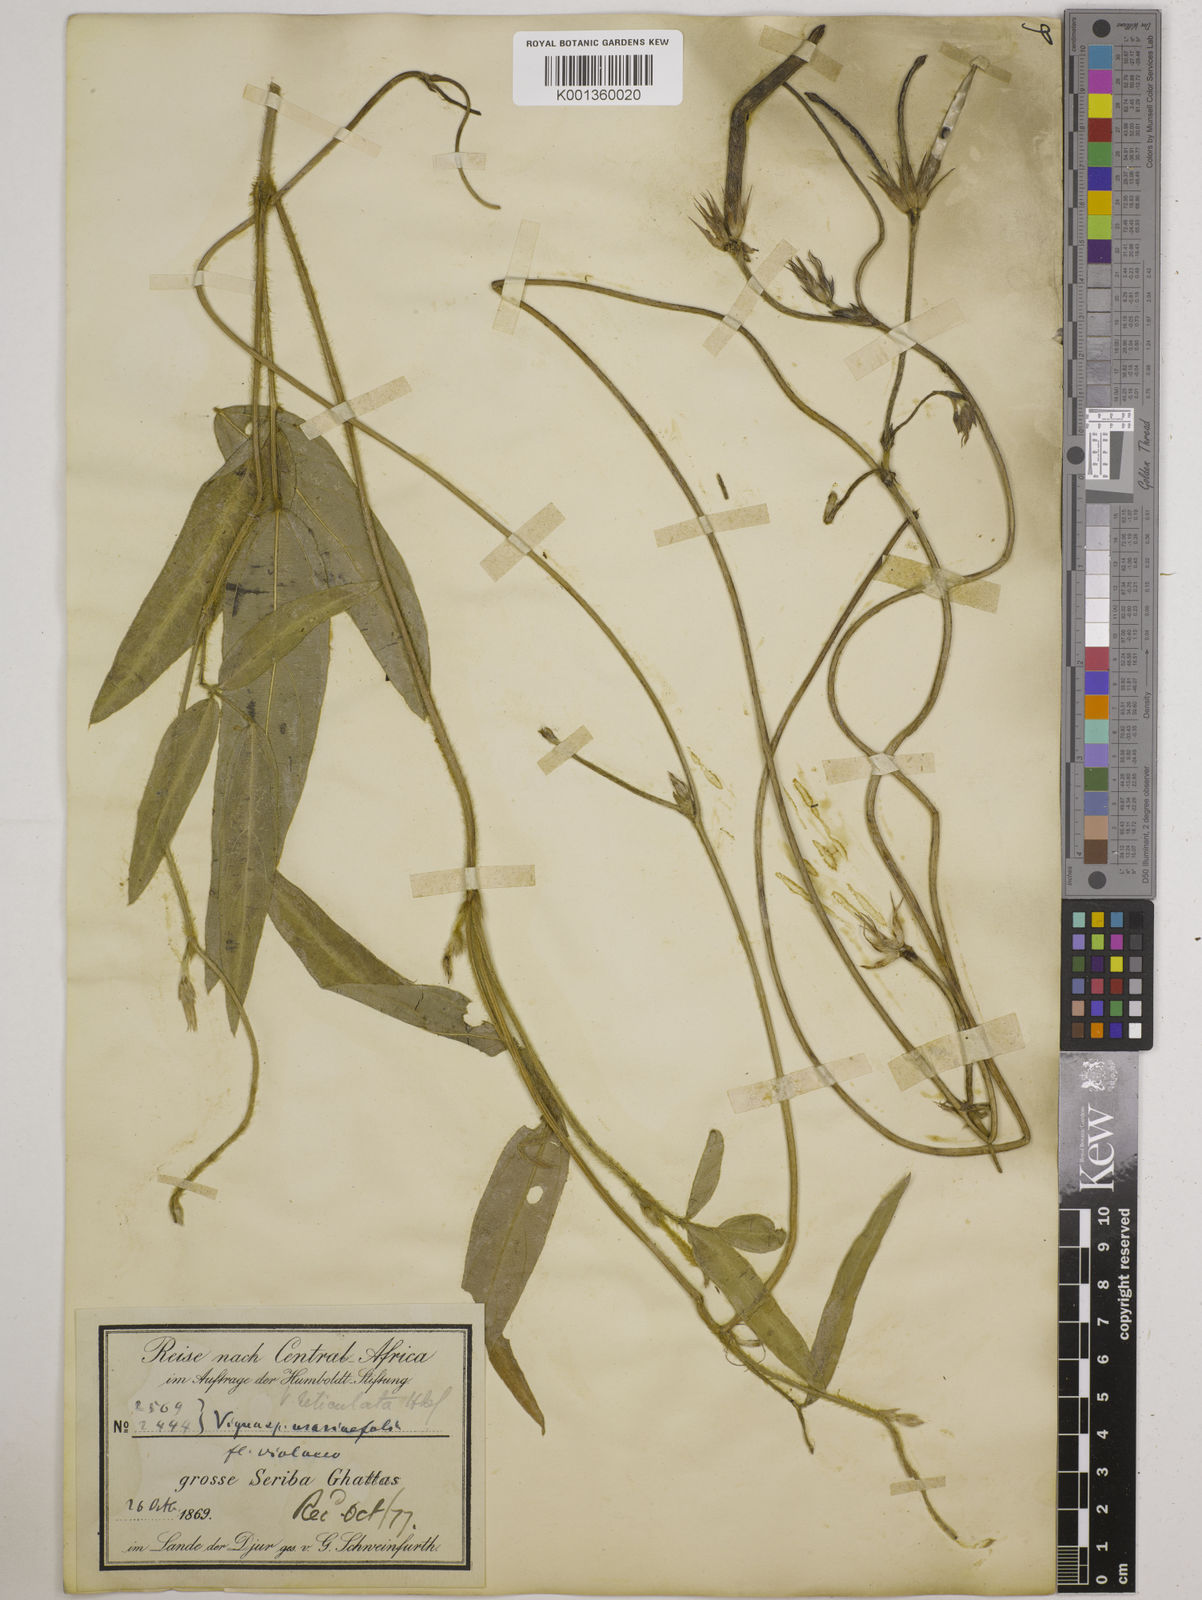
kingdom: Plantae
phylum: Tracheophyta
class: Magnoliopsida
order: Fabales
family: Fabaceae
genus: Vigna
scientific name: Vigna reticulata
